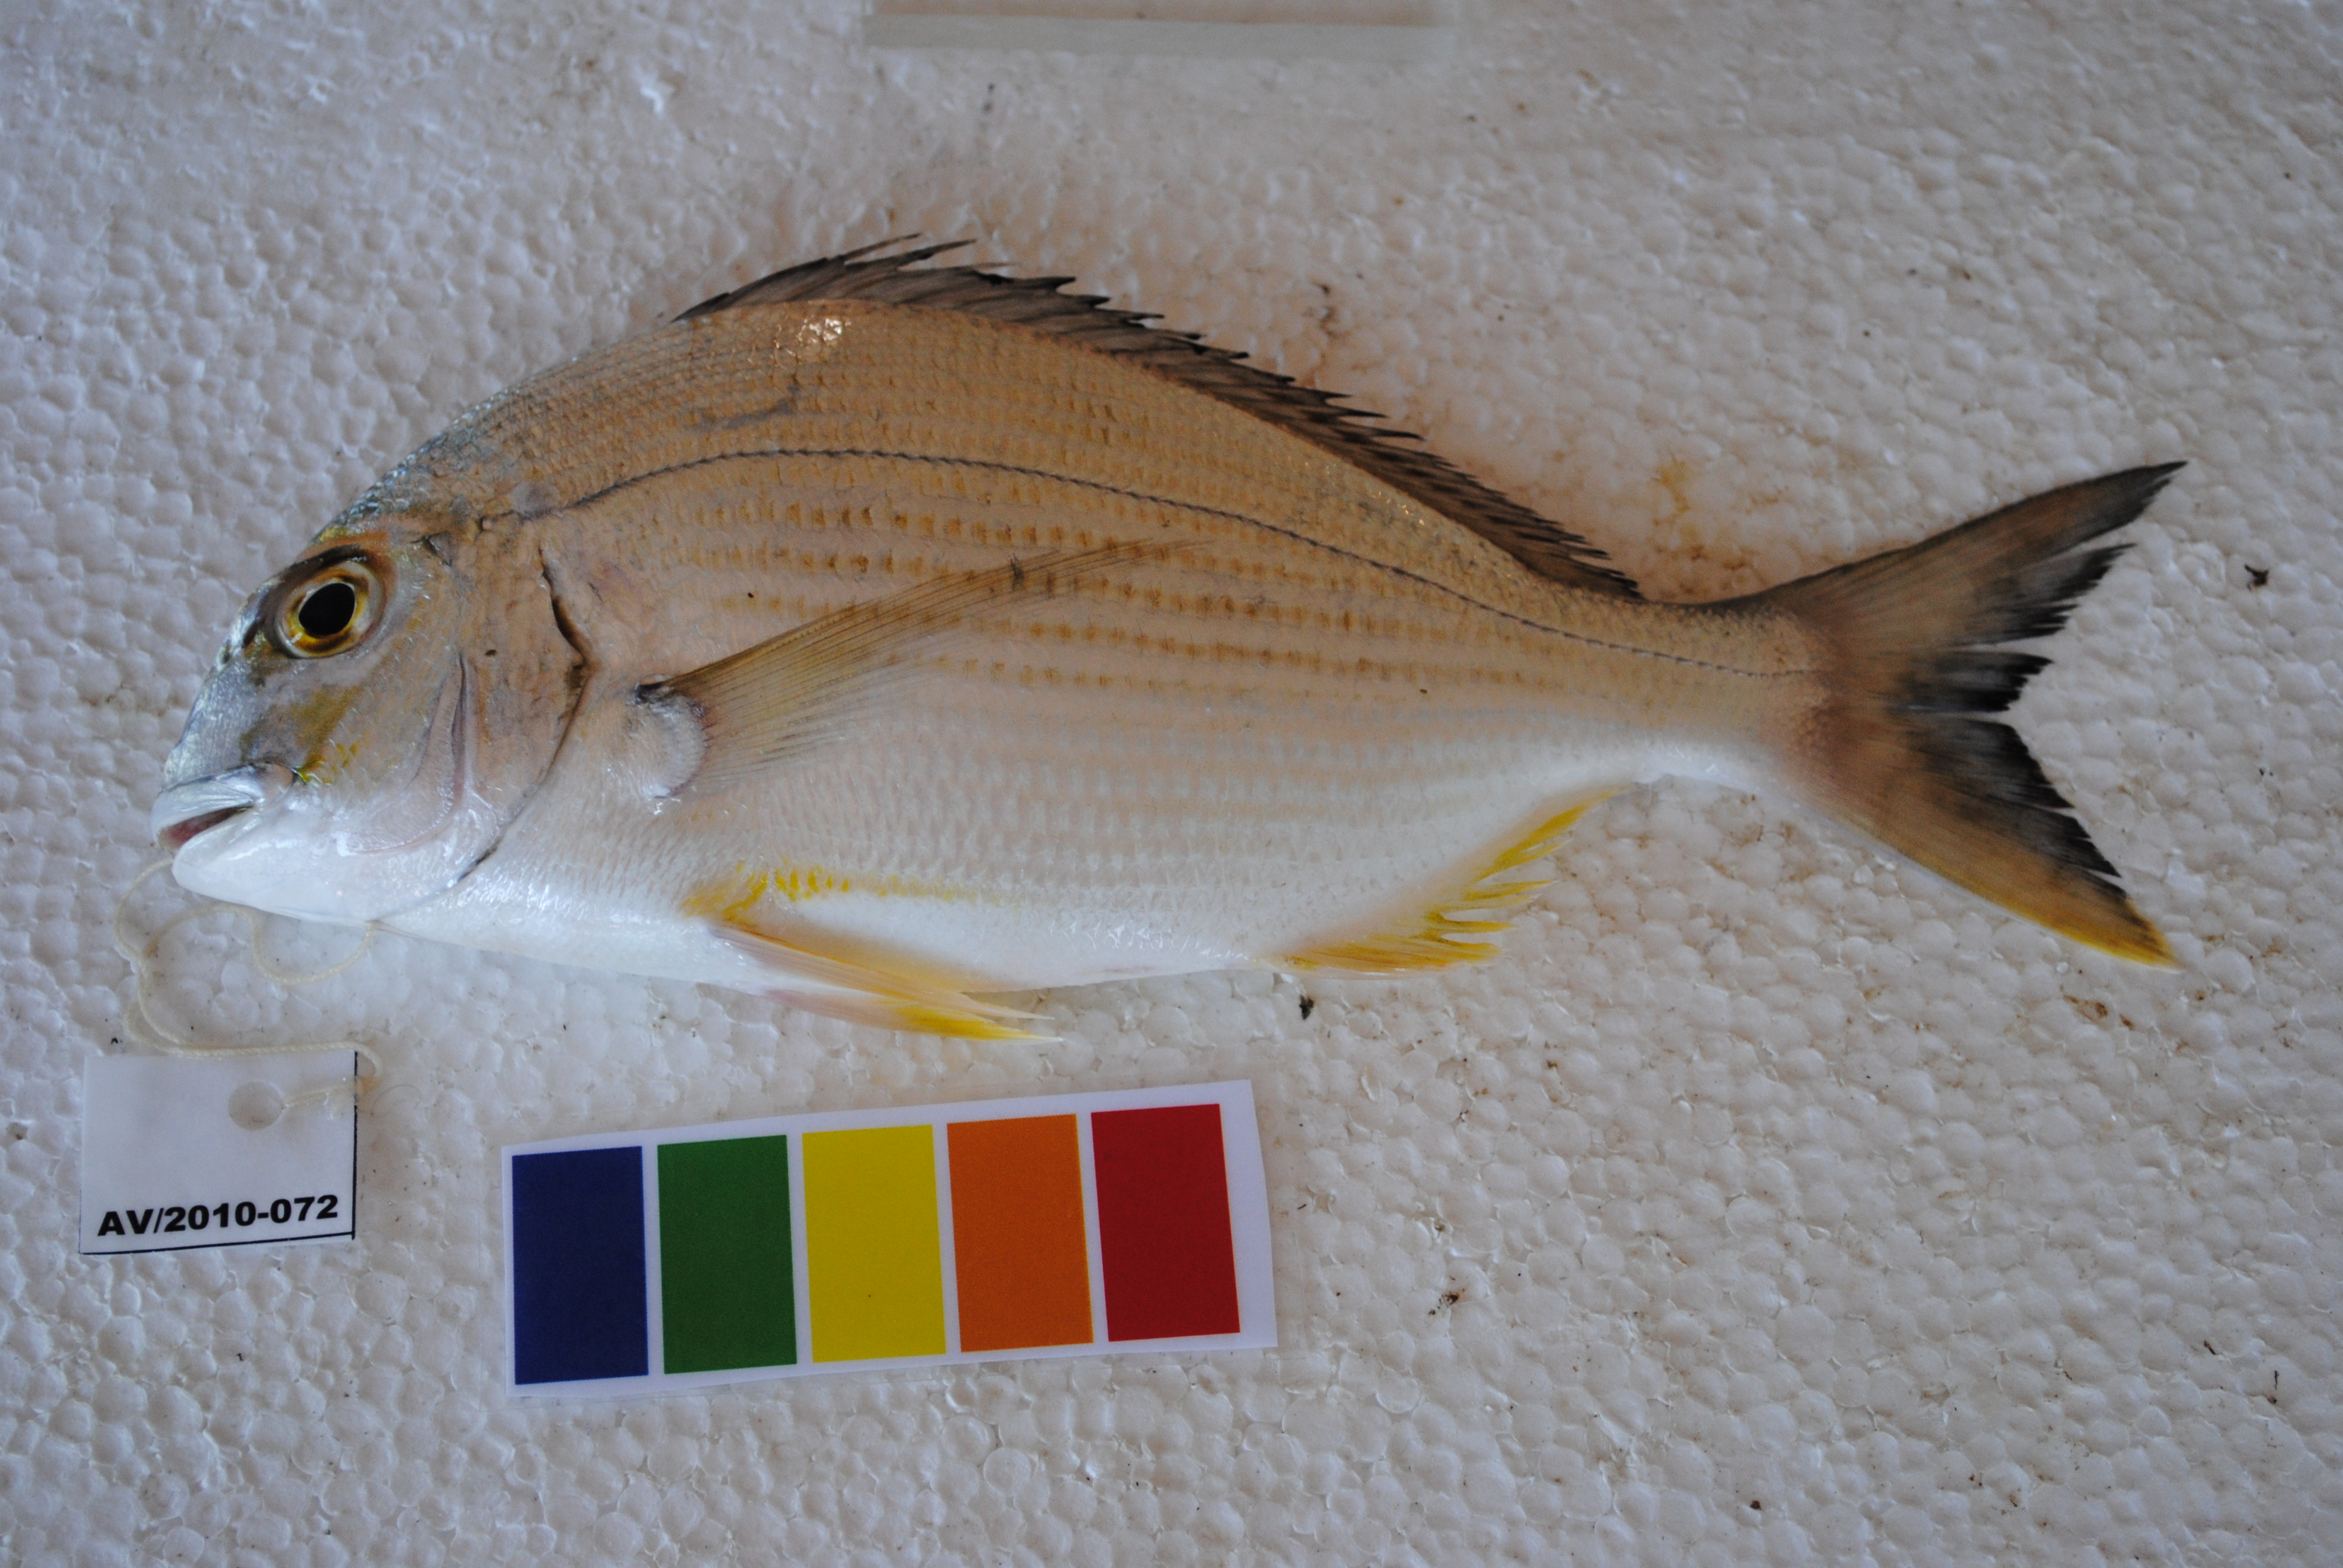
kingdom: Animalia
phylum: Chordata
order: Perciformes
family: Sparidae
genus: Rhabdosargus
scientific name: Rhabdosargus sarba
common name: Goldlined seabream
